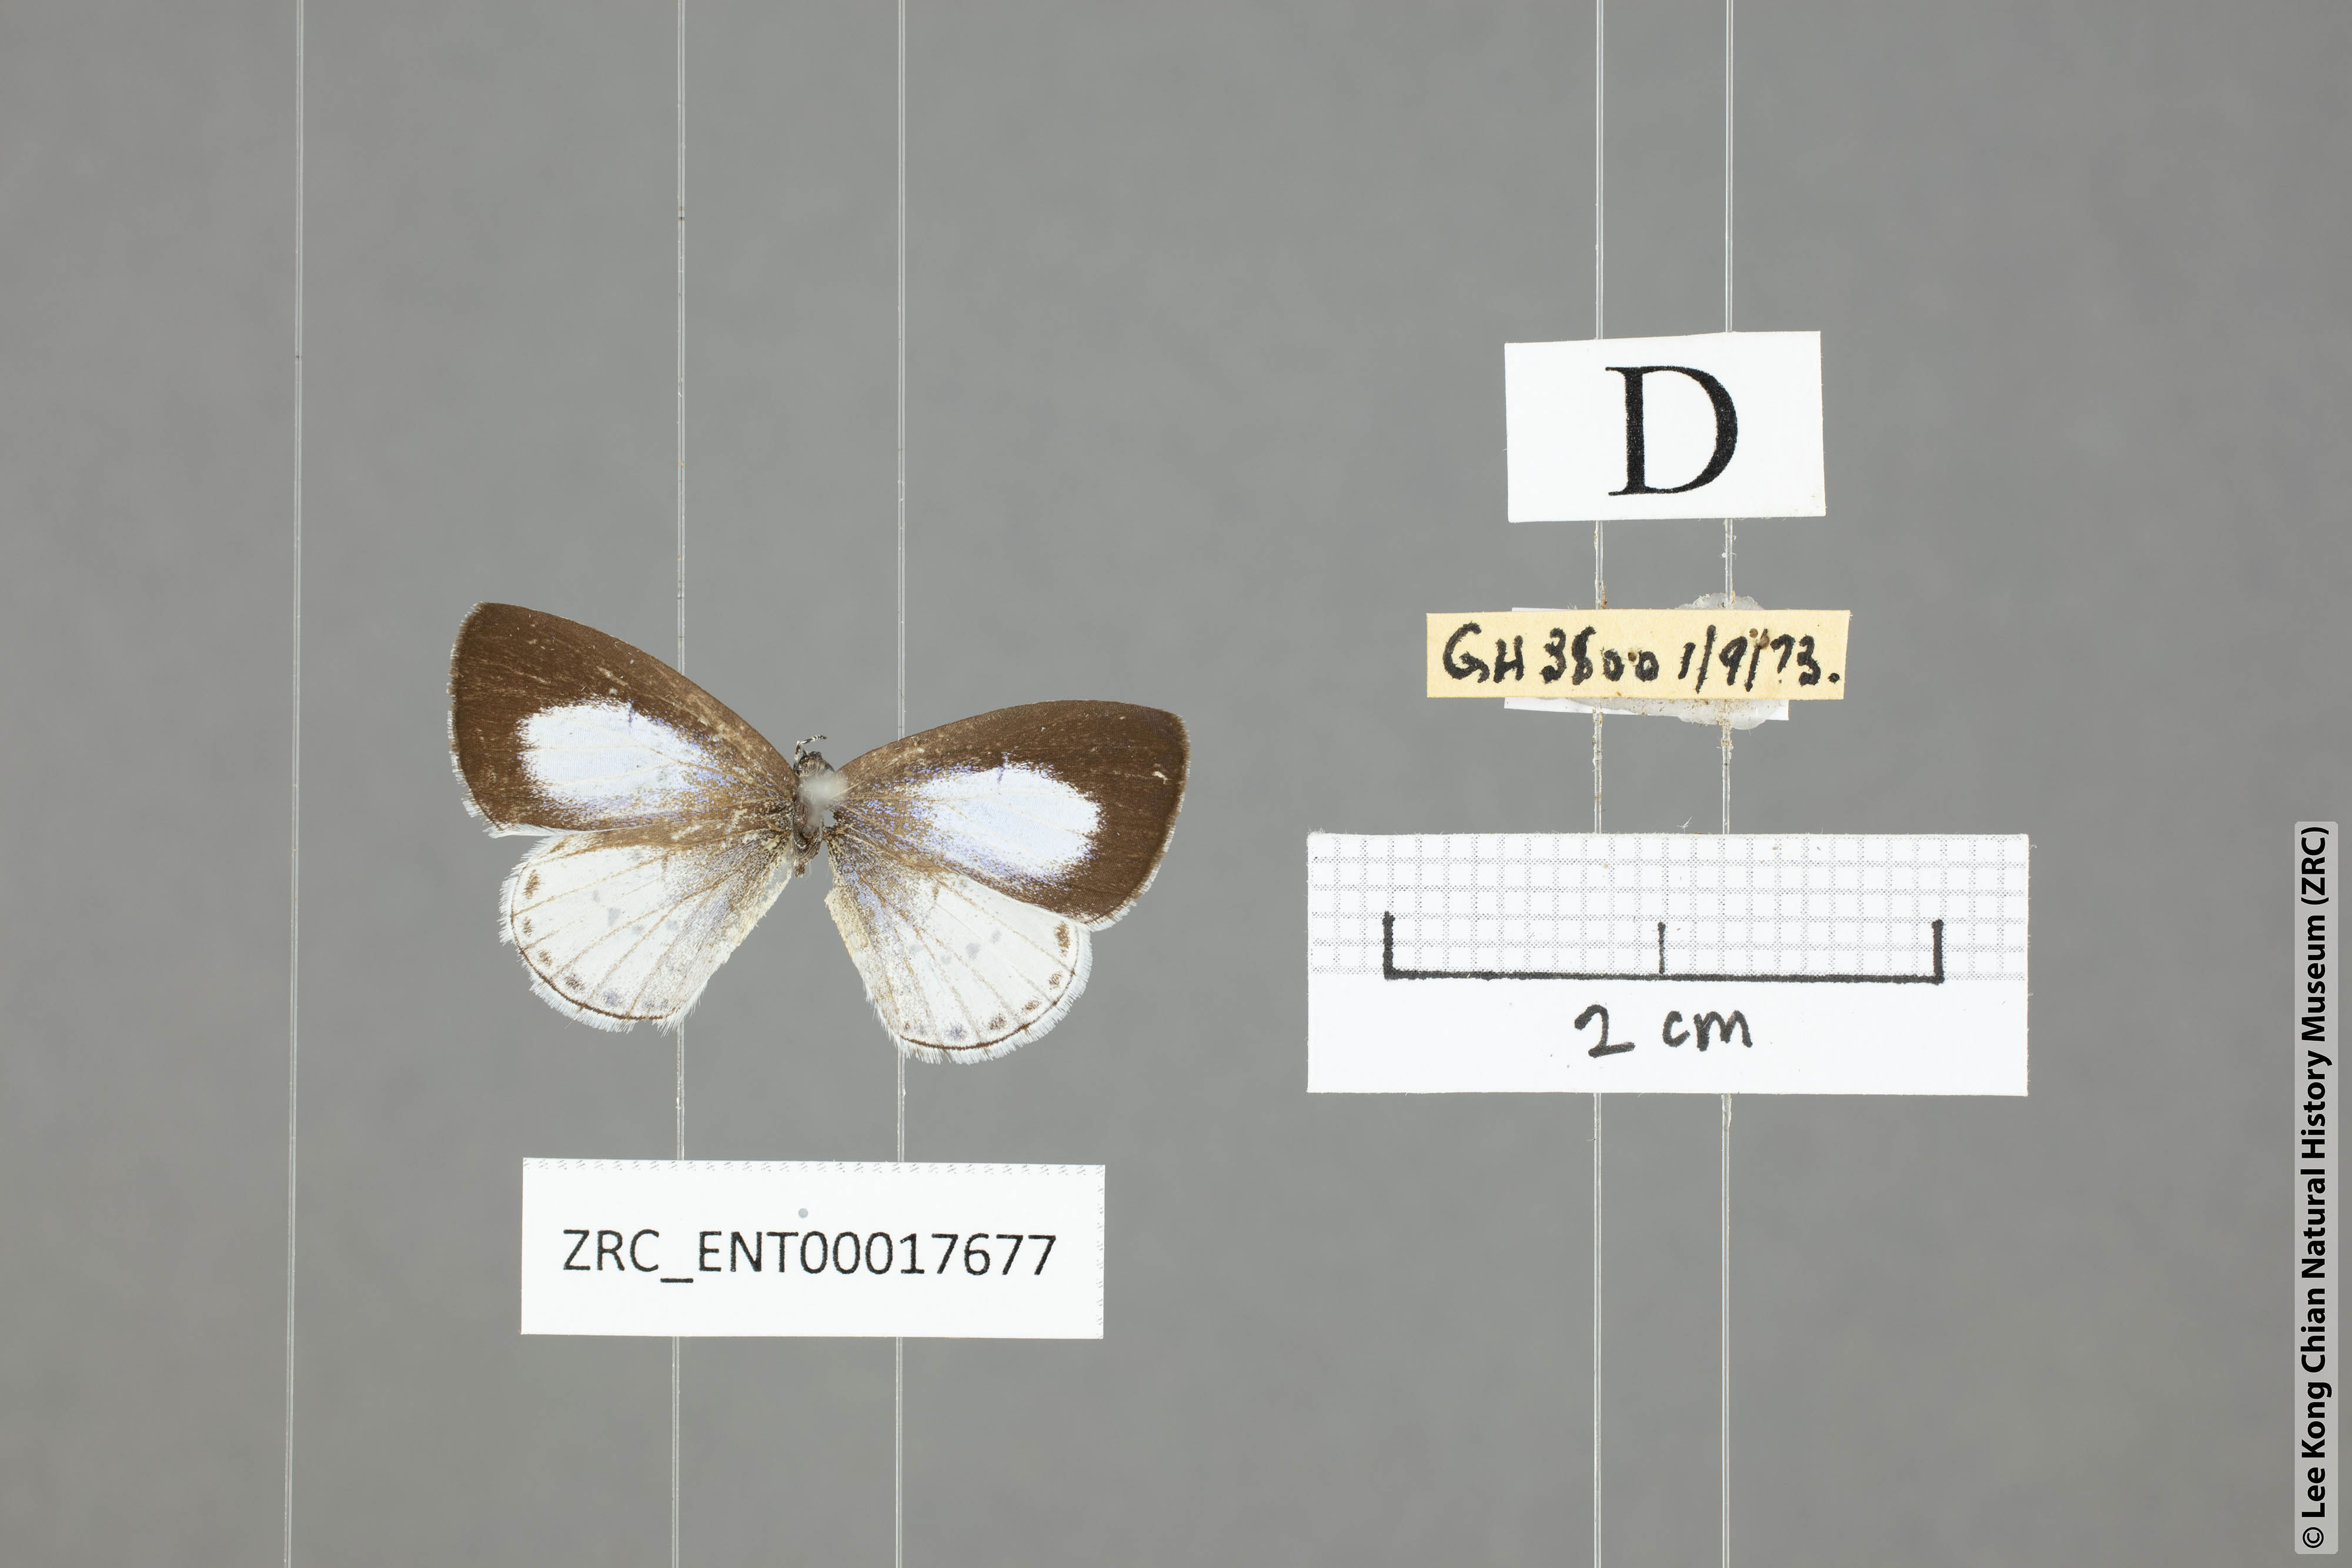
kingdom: Animalia
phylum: Arthropoda
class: Insecta
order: Lepidoptera
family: Lycaenidae
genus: Udara
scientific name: Udara albocaerulea
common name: Albocerulean
